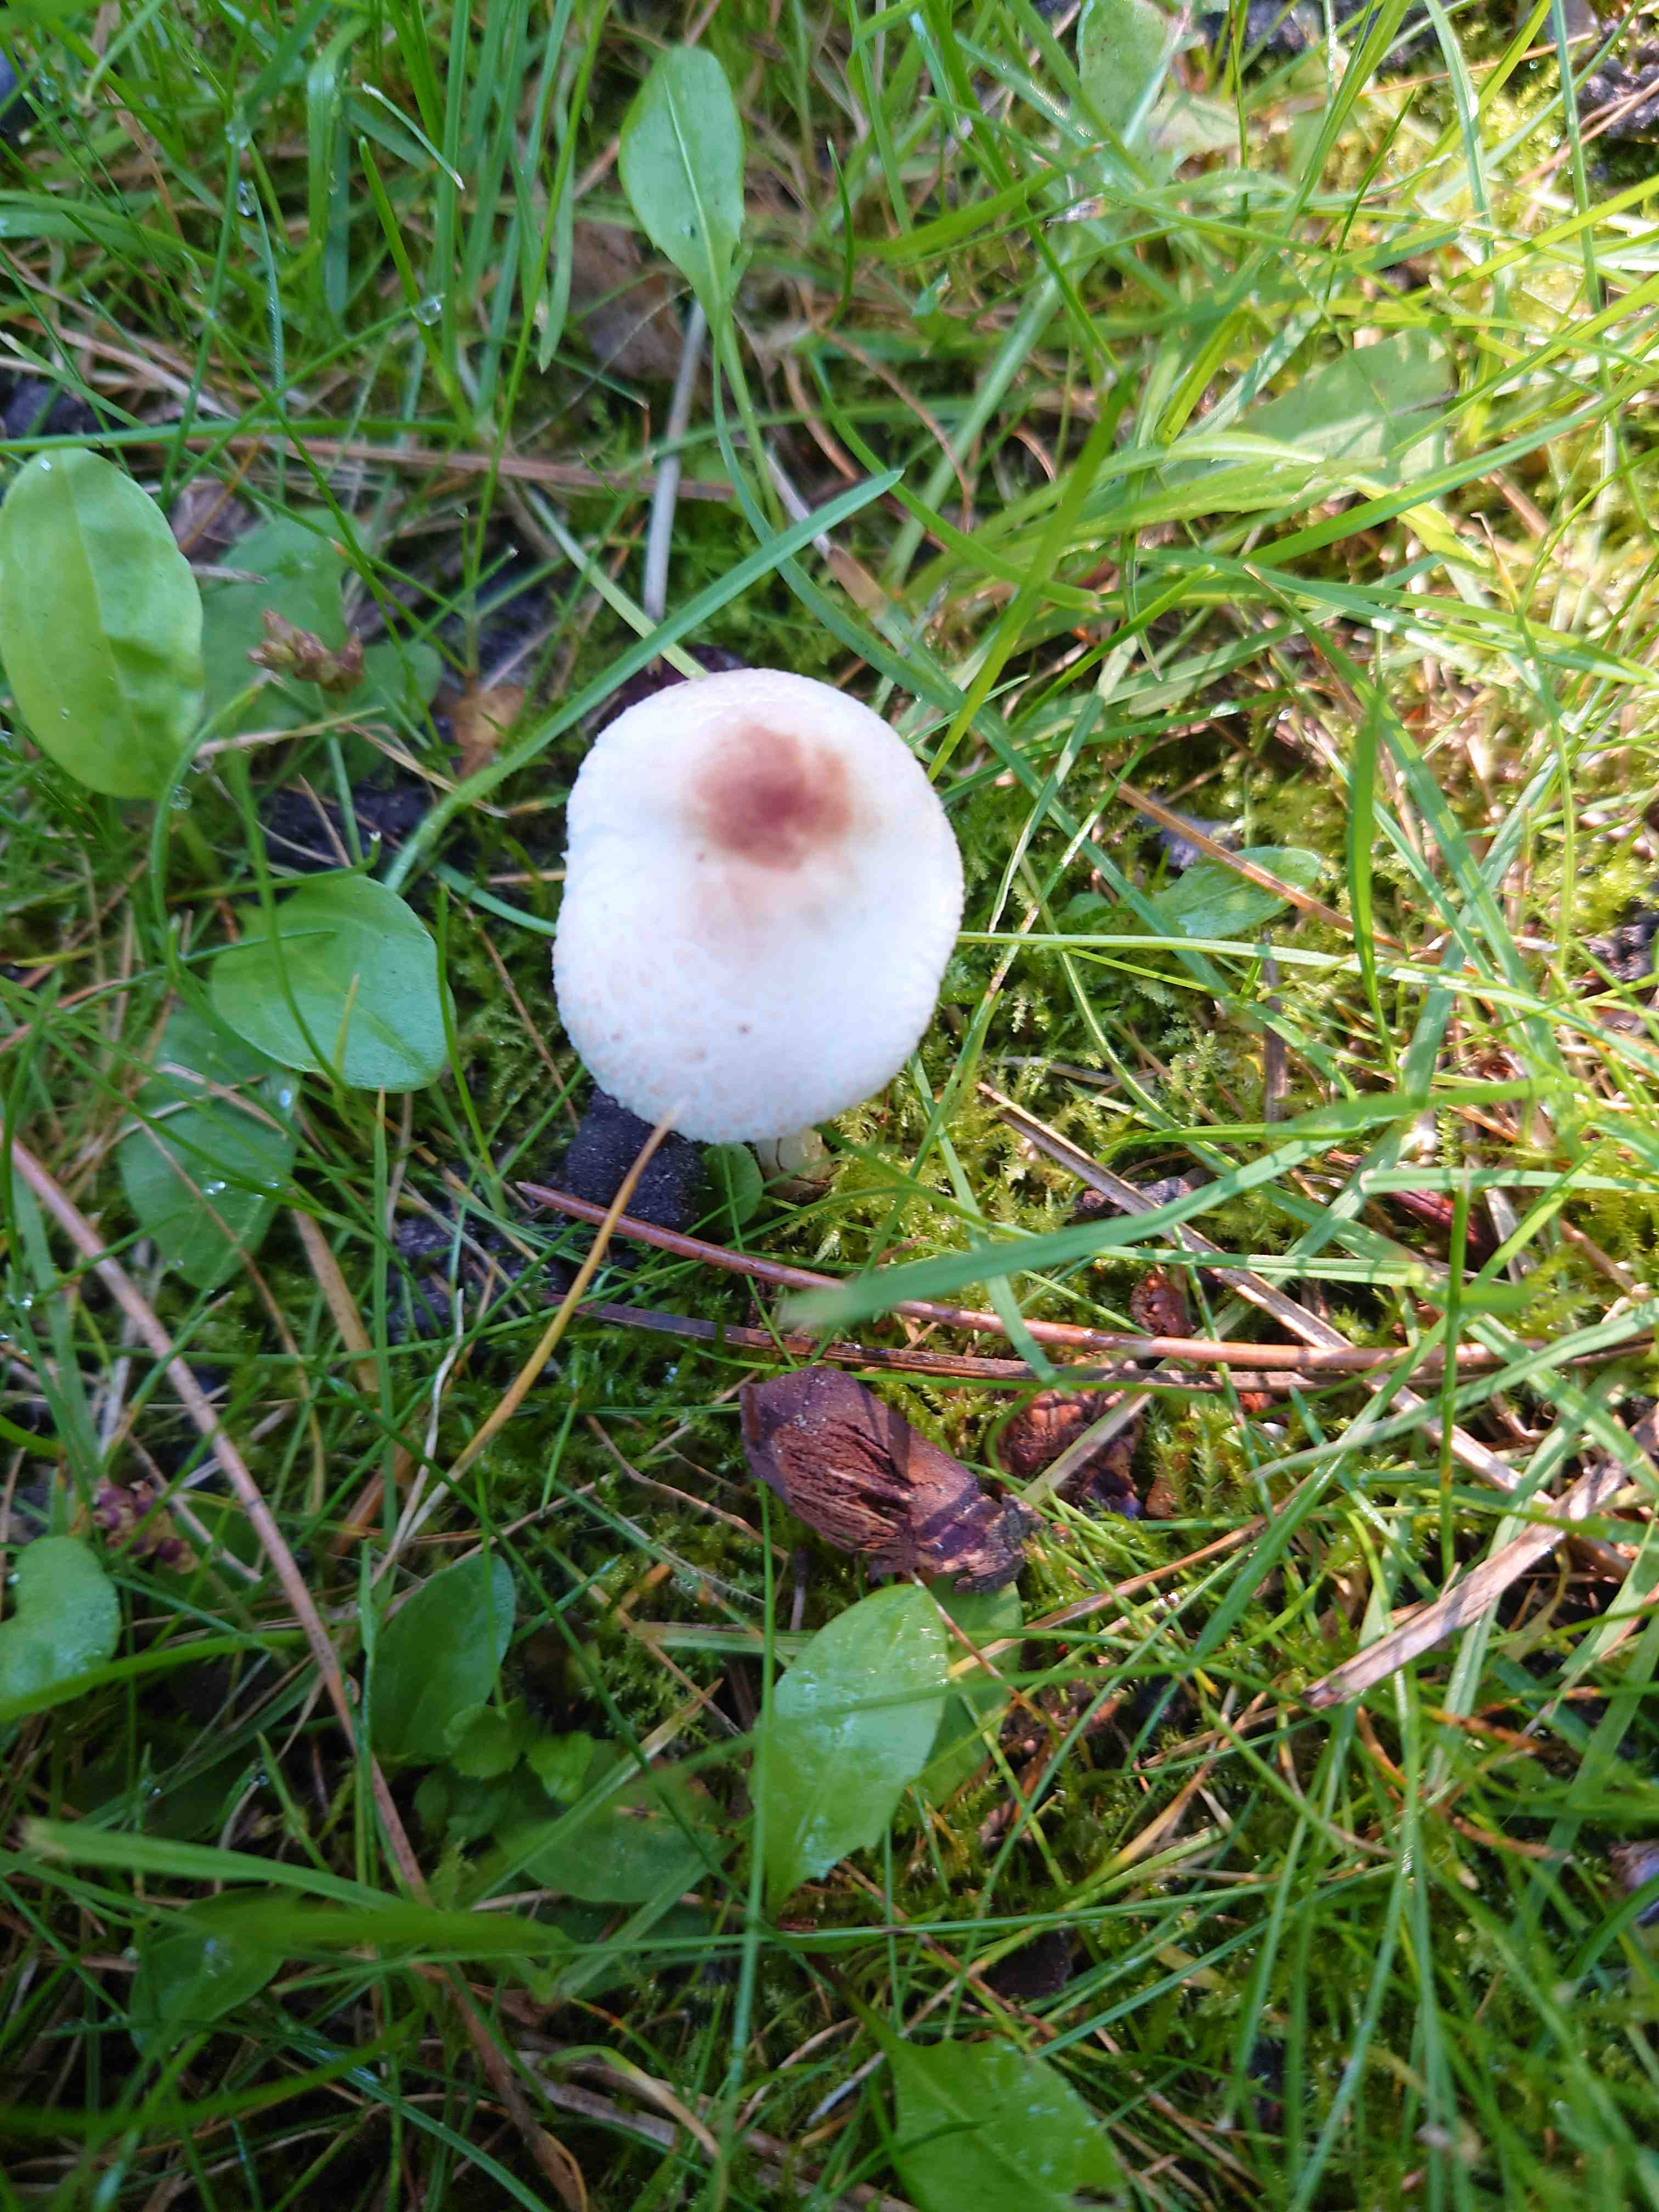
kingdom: Fungi
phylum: Basidiomycota
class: Agaricomycetes
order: Agaricales
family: Agaricaceae
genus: Lepiota
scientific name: Lepiota cristata
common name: stinkende parasolhat
